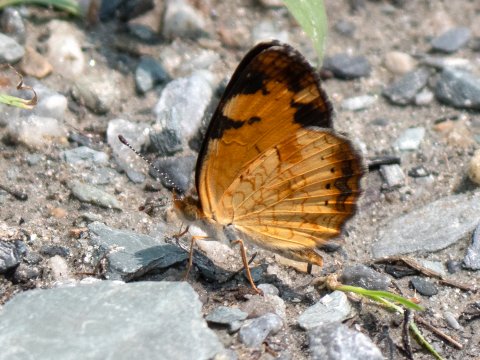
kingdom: Animalia
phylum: Arthropoda
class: Insecta
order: Lepidoptera
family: Nymphalidae
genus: Phyciodes
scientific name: Phyciodes
